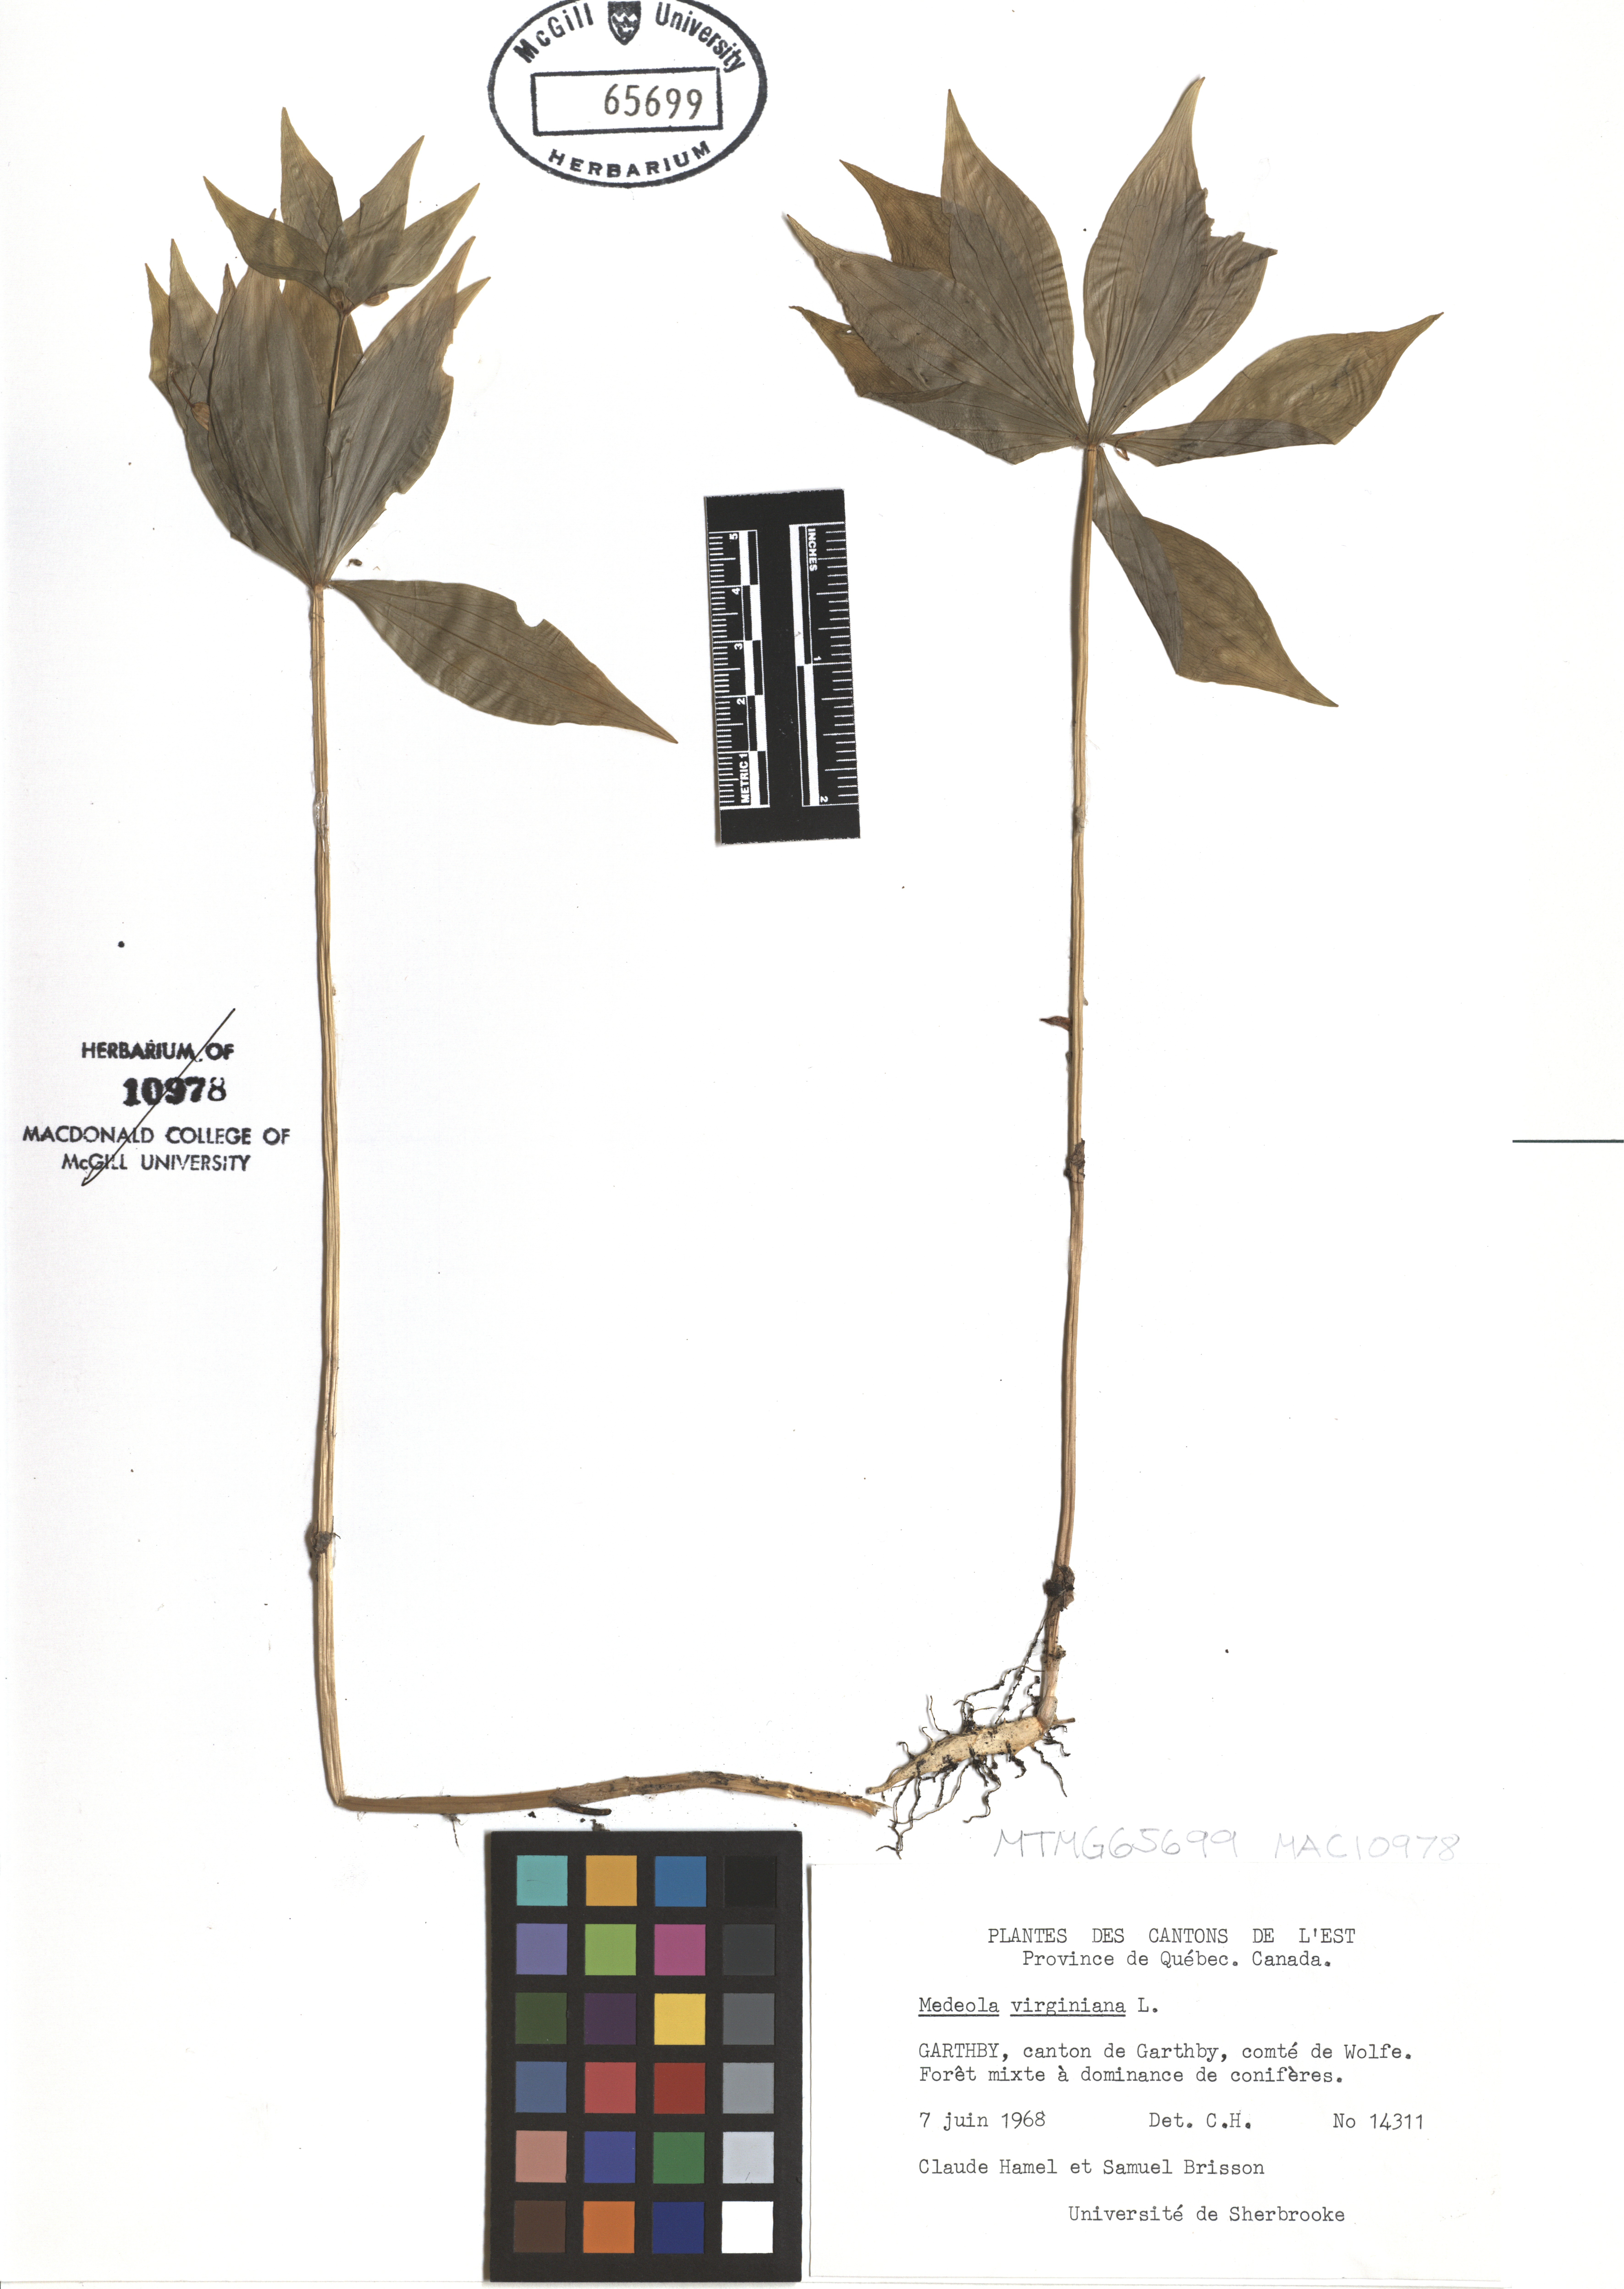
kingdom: Plantae
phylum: Tracheophyta
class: Liliopsida
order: Liliales
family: Liliaceae
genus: Medeola
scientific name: Medeola virginiana
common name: Indian cucumber-root
